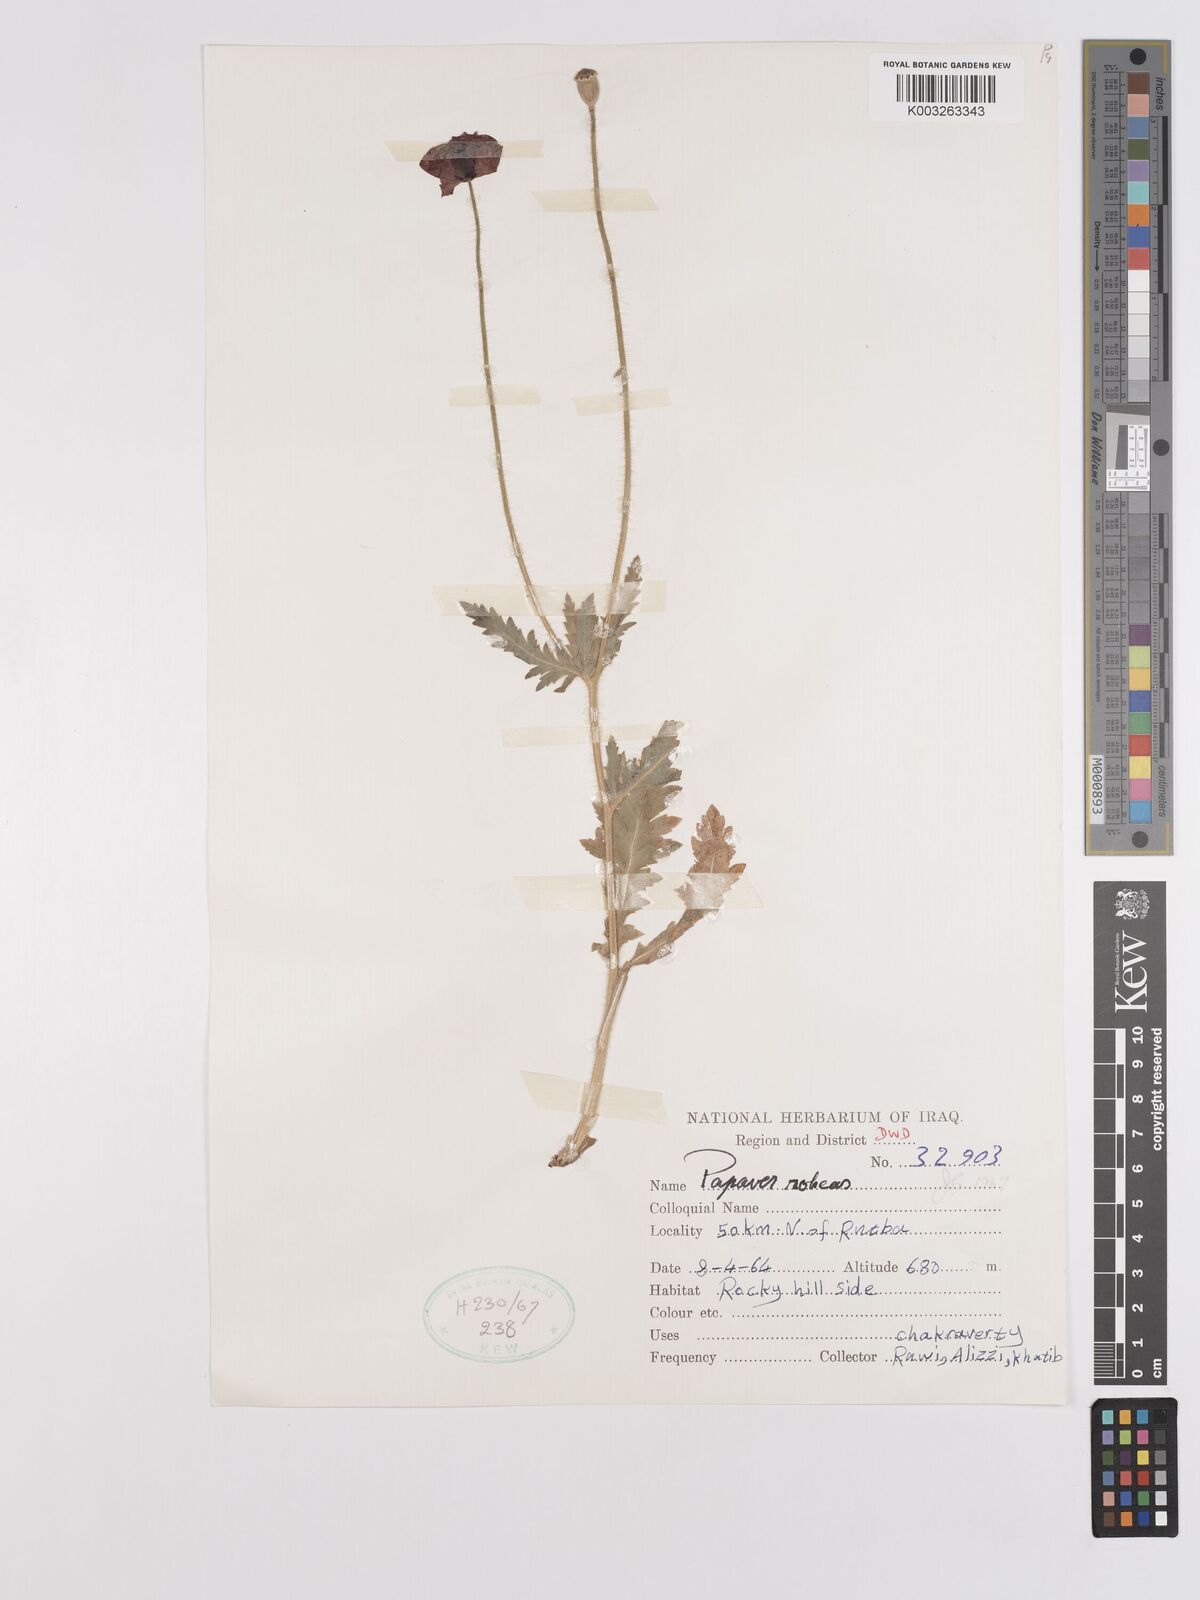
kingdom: Plantae
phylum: Tracheophyta
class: Magnoliopsida
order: Ranunculales
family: Papaveraceae
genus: Papaver
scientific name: Papaver rhoeas
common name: Corn poppy
